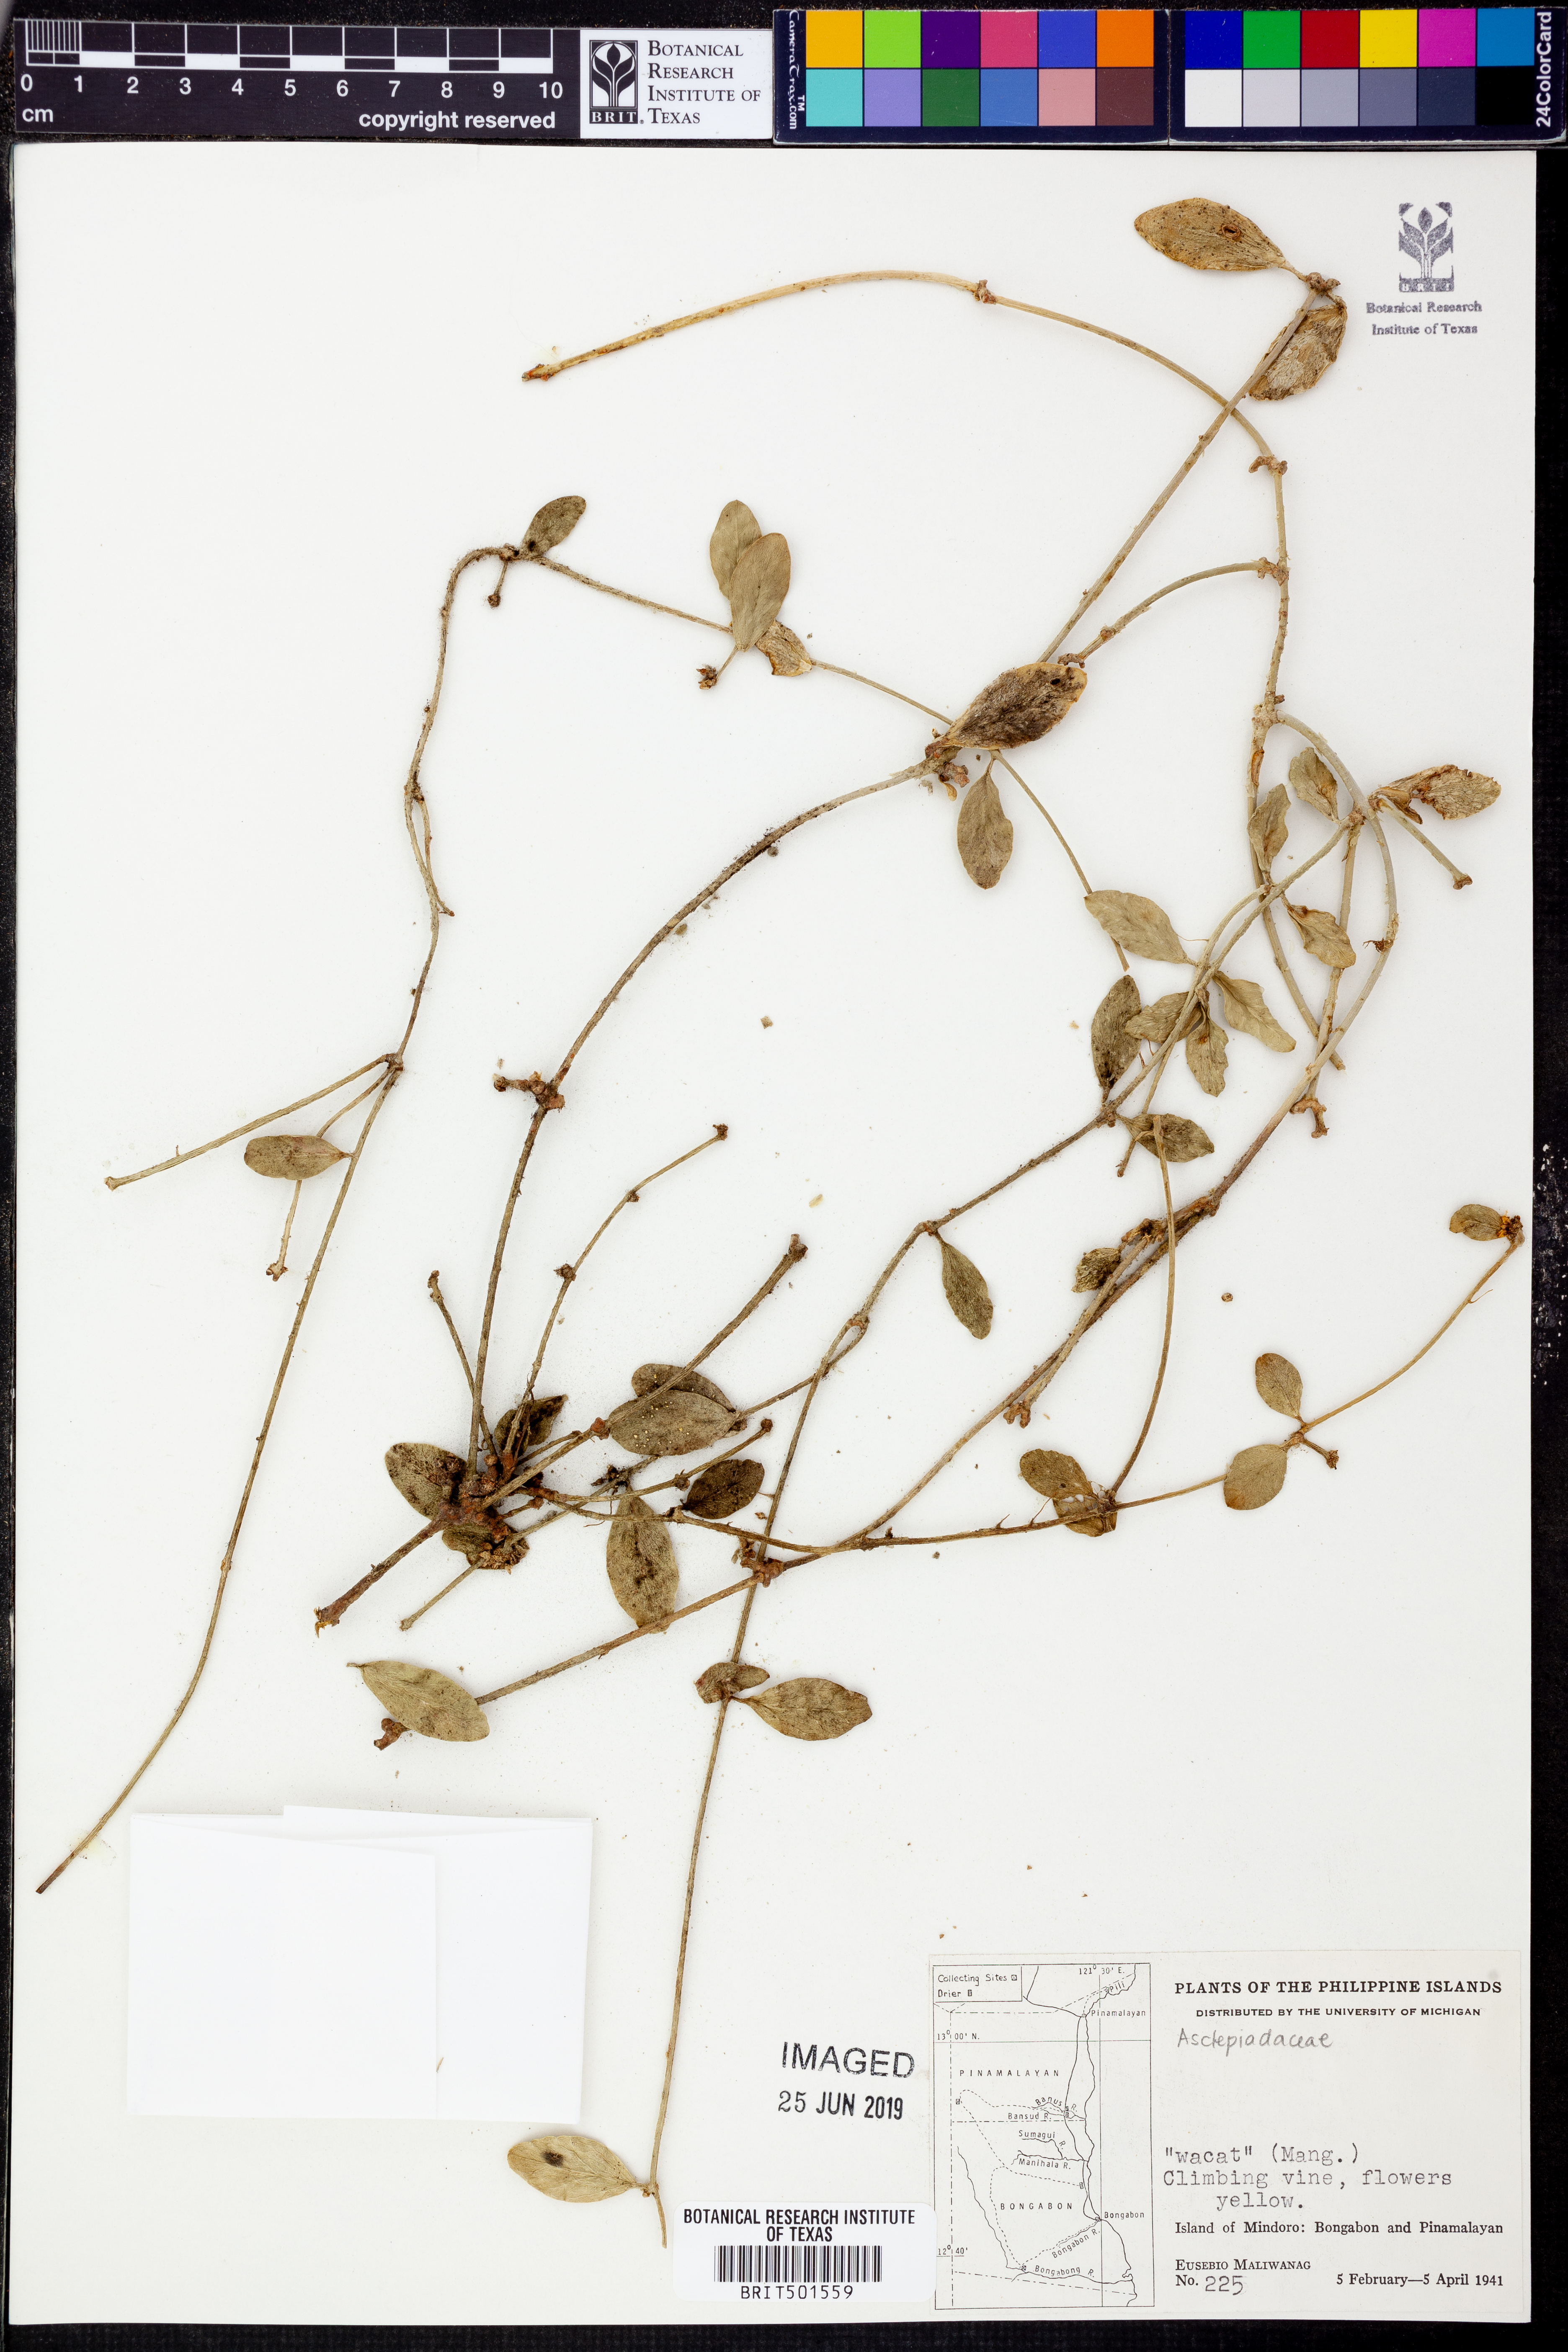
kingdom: Plantae
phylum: Tracheophyta
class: Magnoliopsida
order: Gentianales
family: Apocynaceae
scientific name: Apocynaceae
